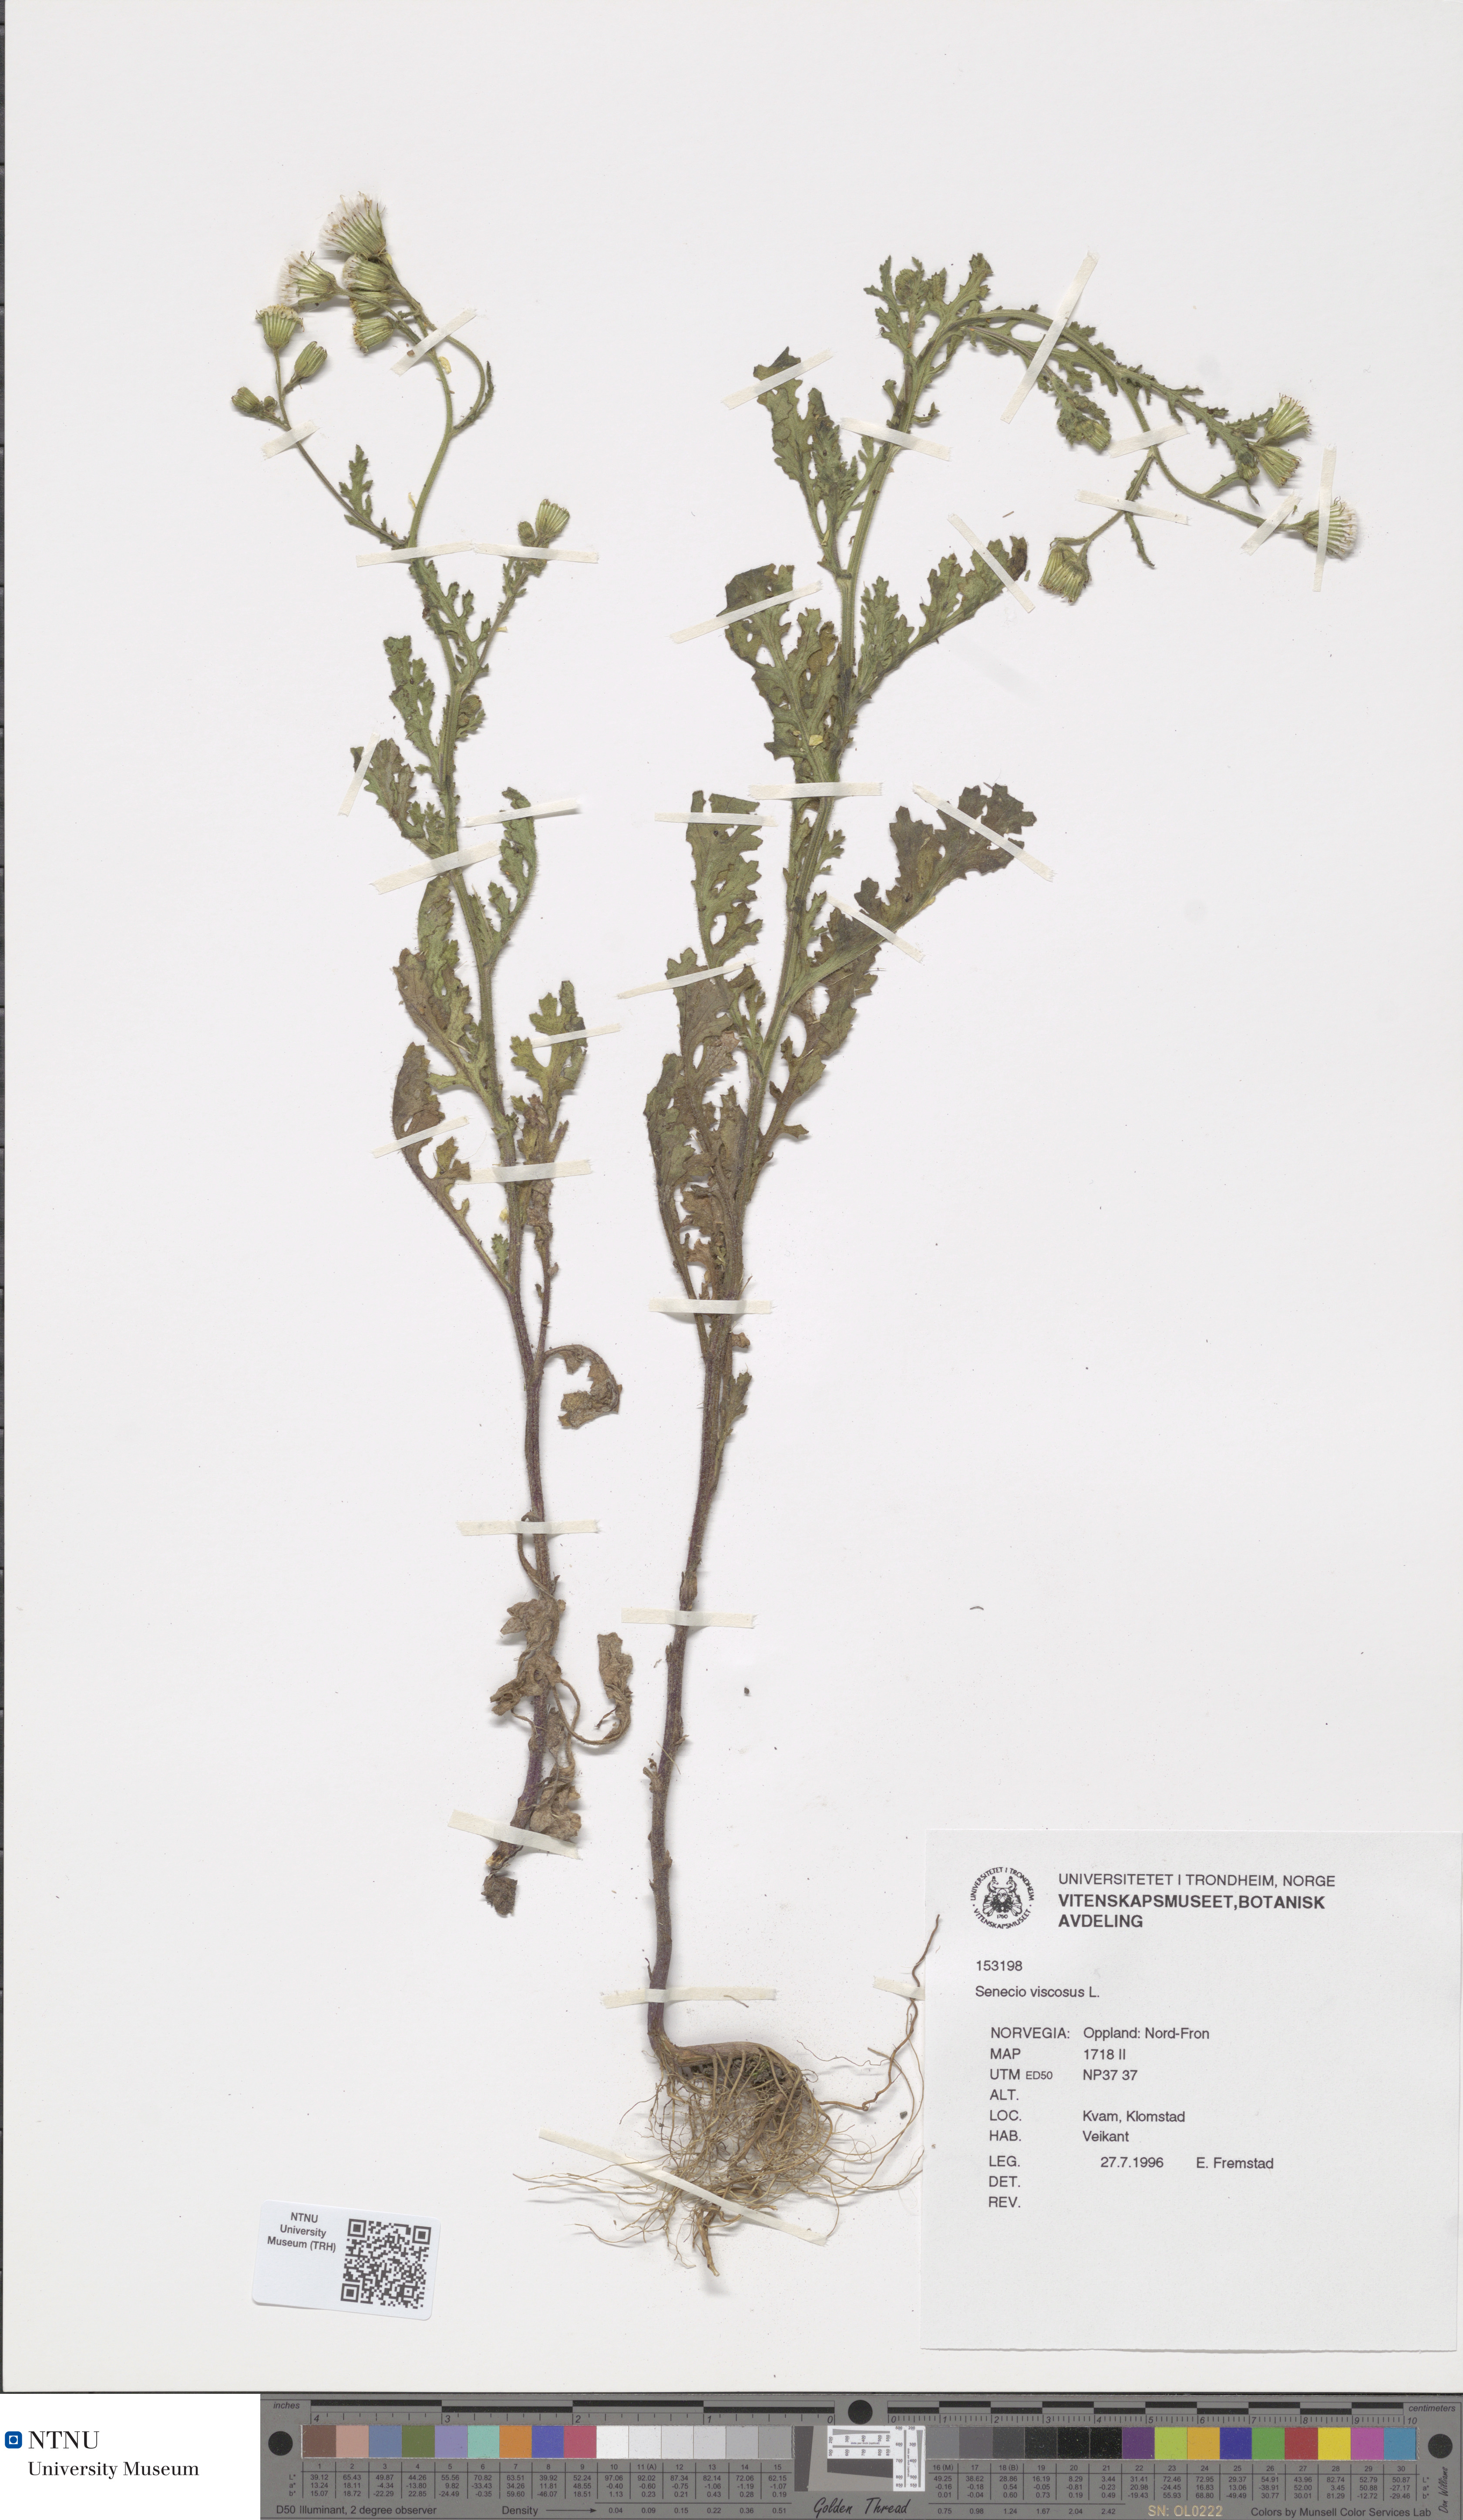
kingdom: Plantae
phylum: Tracheophyta
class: Magnoliopsida
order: Asterales
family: Asteraceae
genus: Senecio
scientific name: Senecio viscosus
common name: Sticky groundsel
